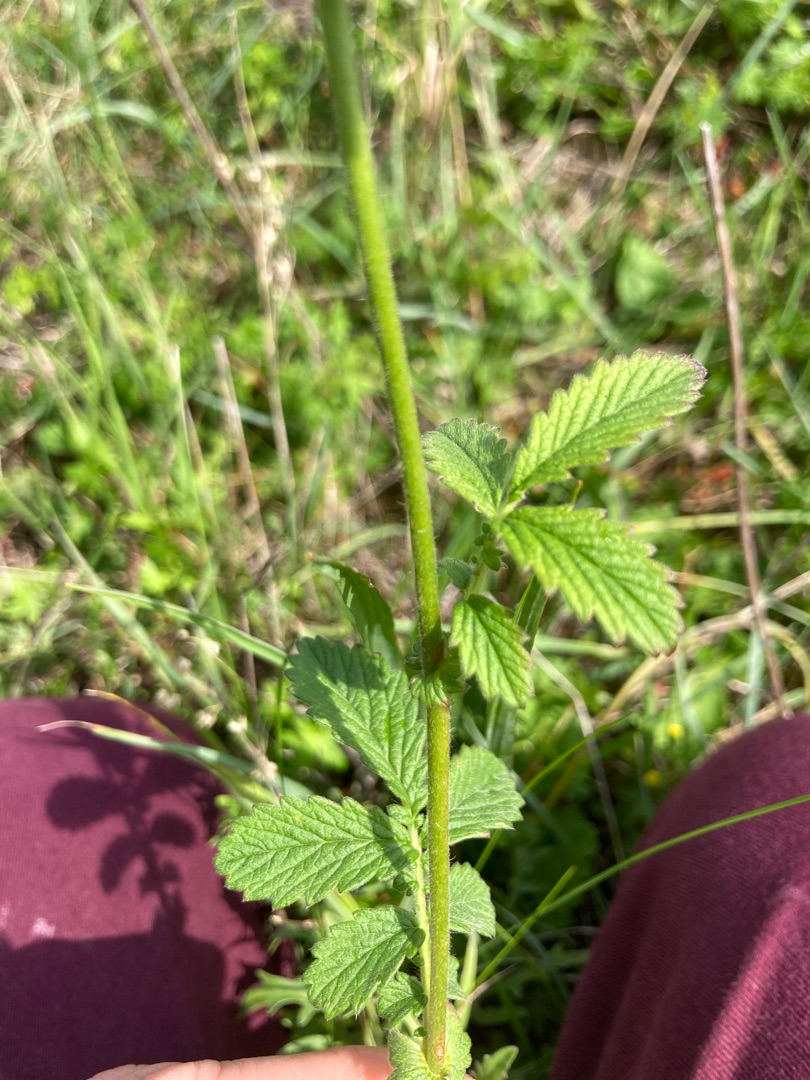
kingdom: Plantae
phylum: Tracheophyta
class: Magnoliopsida
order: Rosales
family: Rosaceae
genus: Agrimonia
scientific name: Agrimonia eupatoria
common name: Almindelig agermåne
